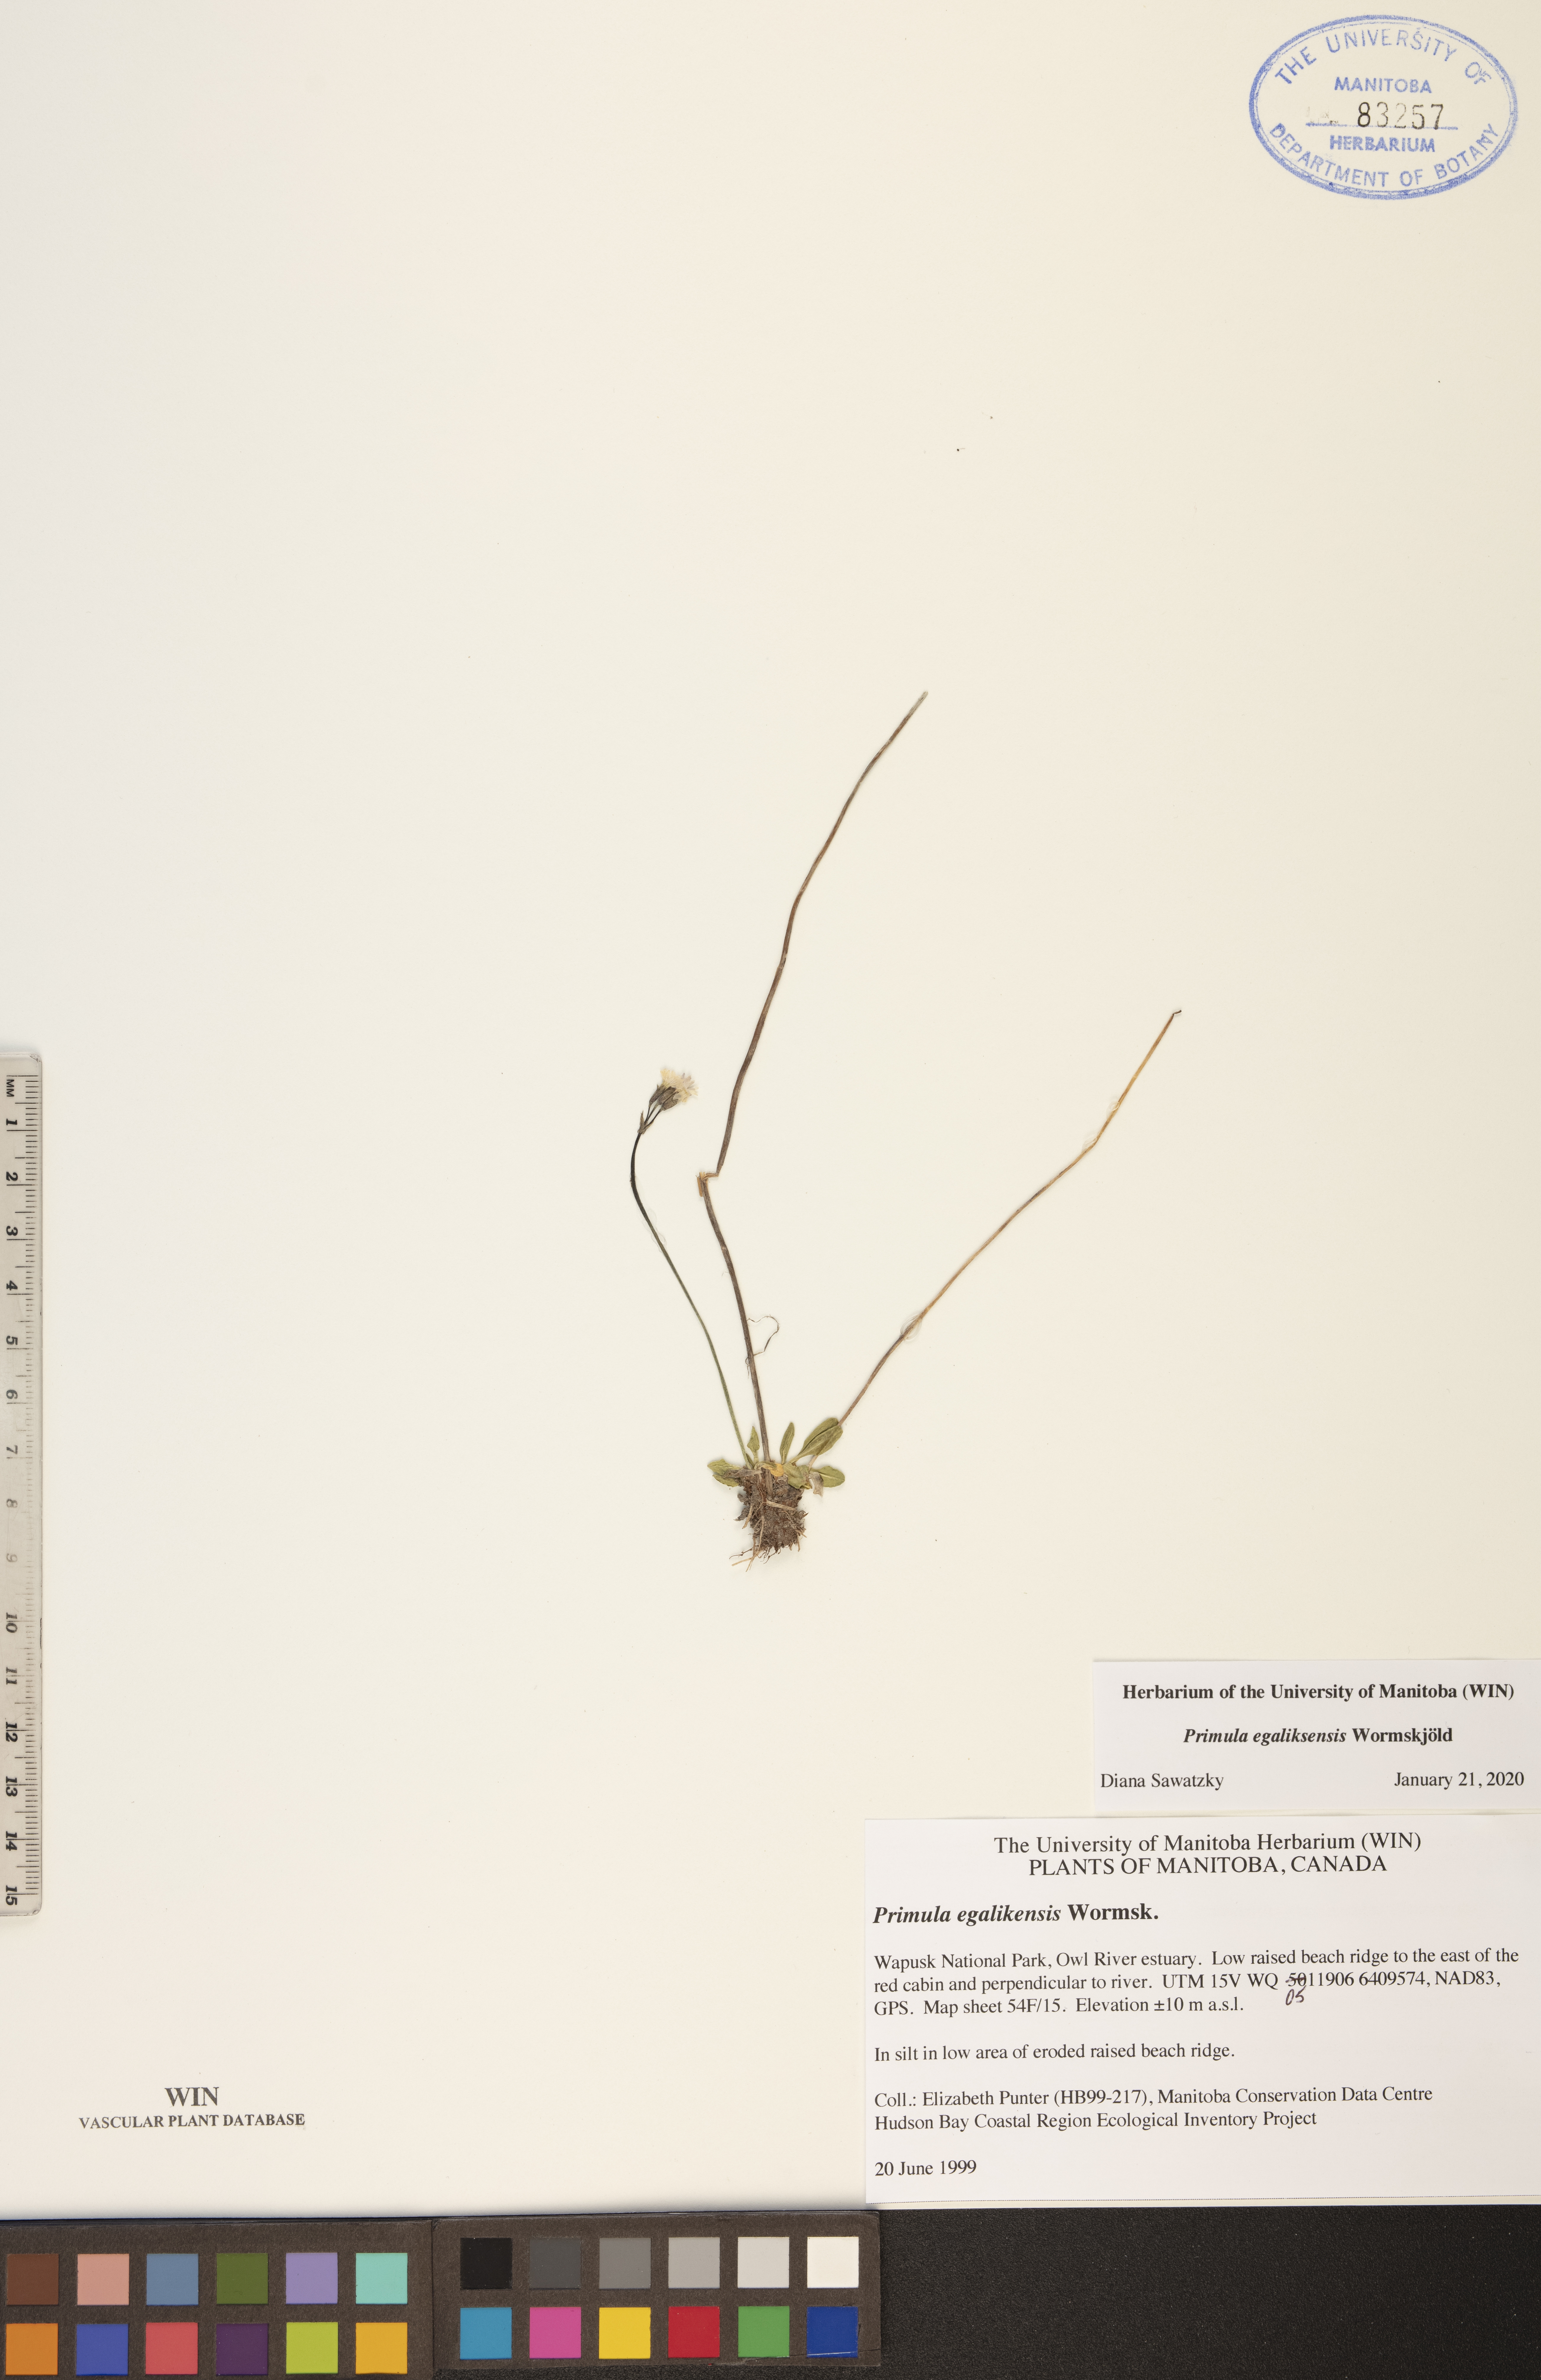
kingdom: Plantae
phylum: Tracheophyta
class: Magnoliopsida
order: Ericales
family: Primulaceae
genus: Primula
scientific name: Primula egaliksensis
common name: Greenland primrose
